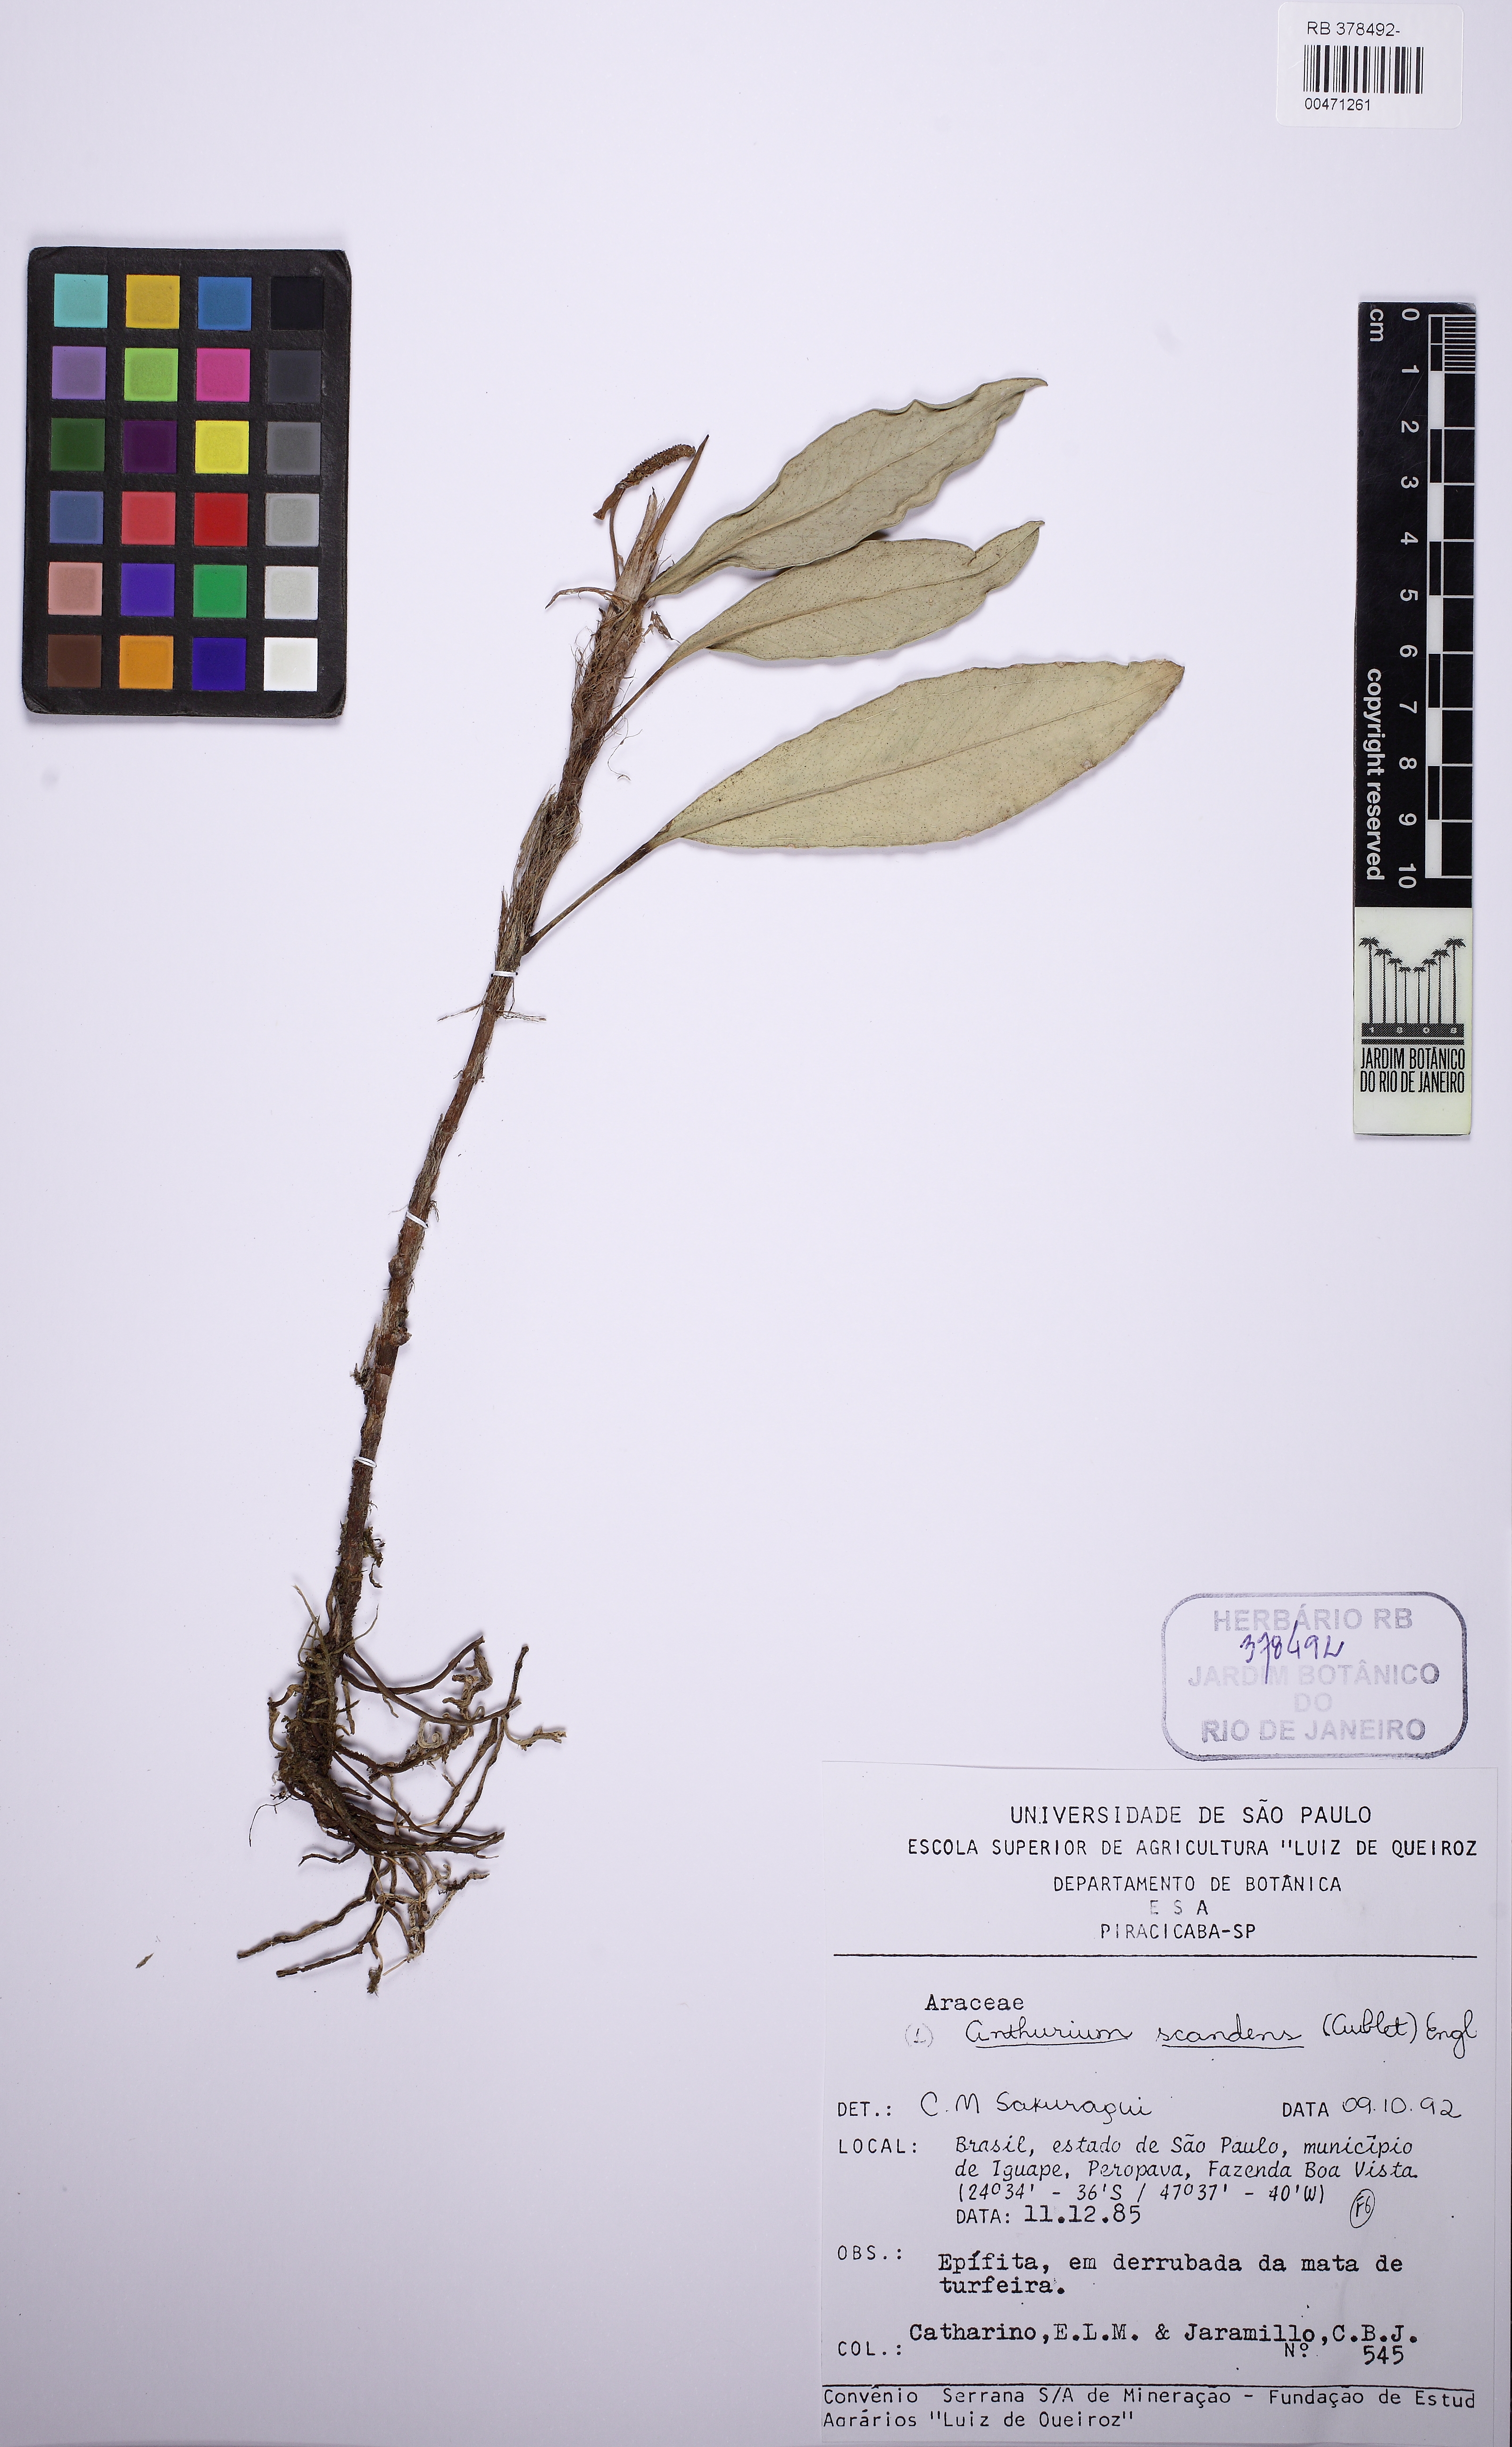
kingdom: Plantae
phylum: Tracheophyta
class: Liliopsida
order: Alismatales
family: Araceae
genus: Anthurium
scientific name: Anthurium scandens
